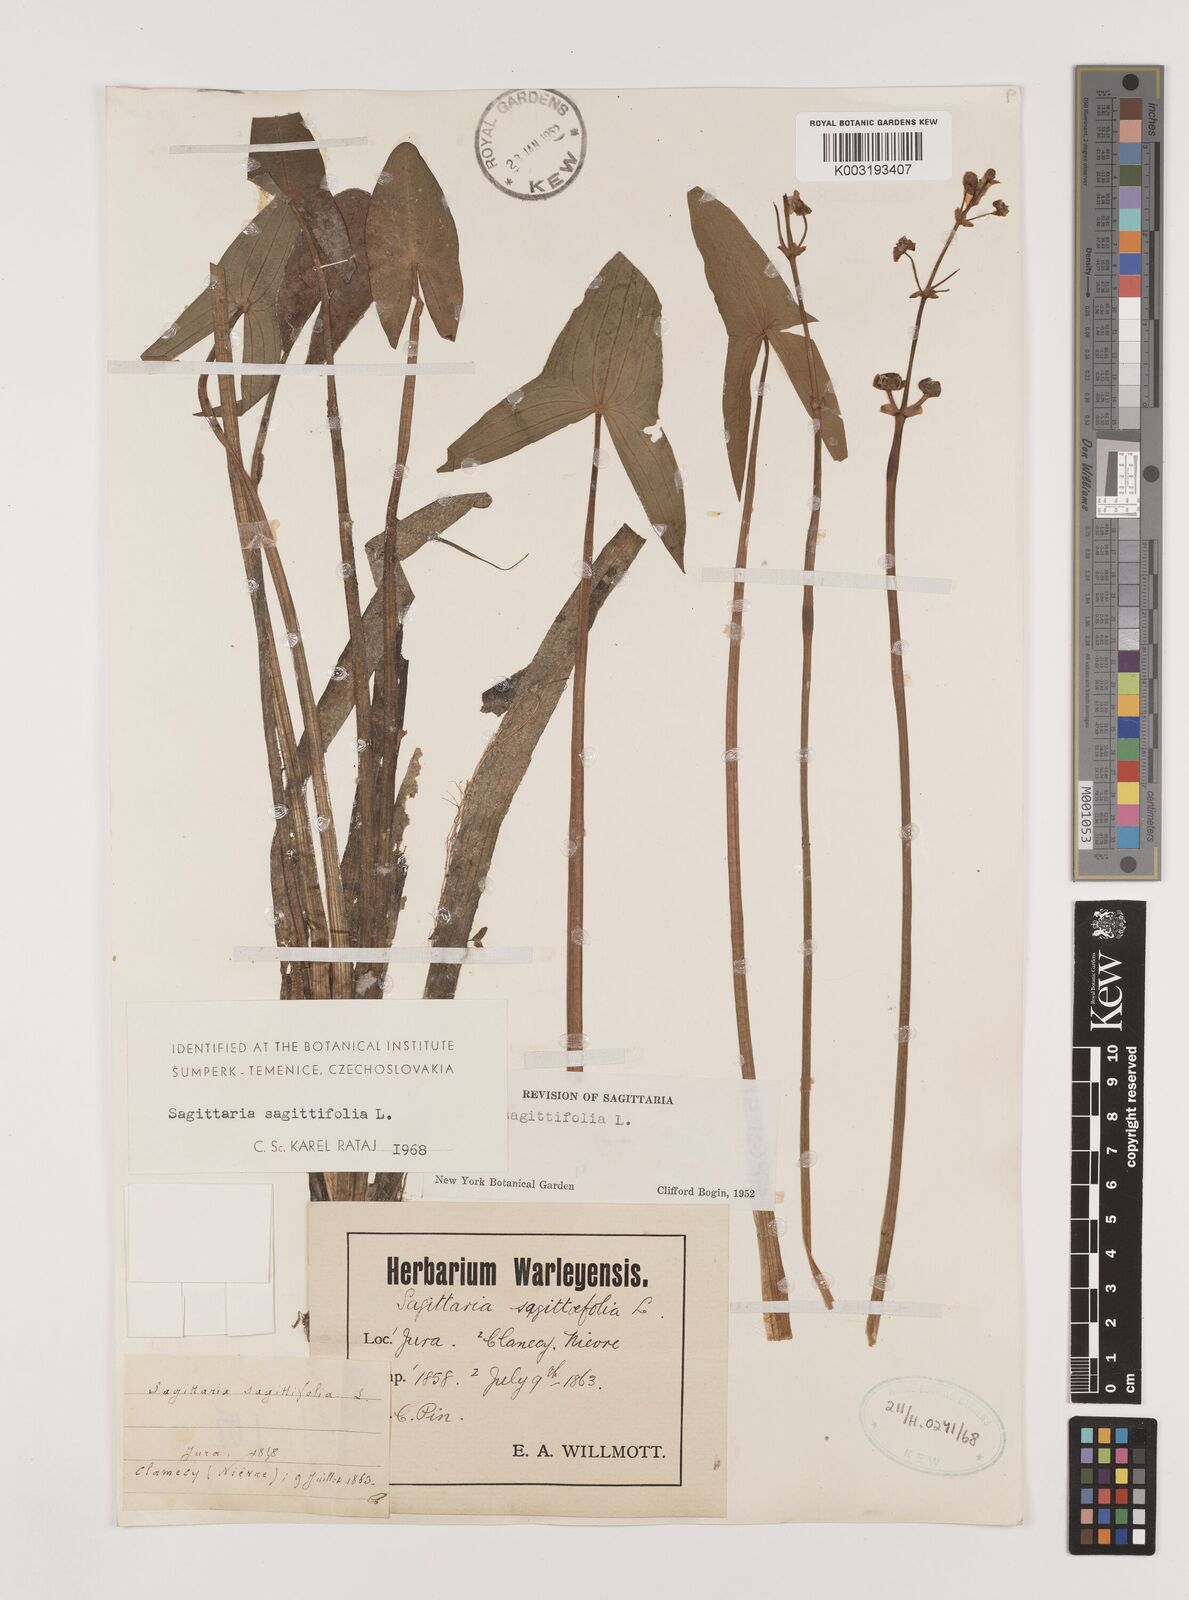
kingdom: Plantae
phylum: Tracheophyta
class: Liliopsida
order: Alismatales
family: Alismataceae
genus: Sagittaria
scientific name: Sagittaria sagittifolia
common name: Arrowhead
